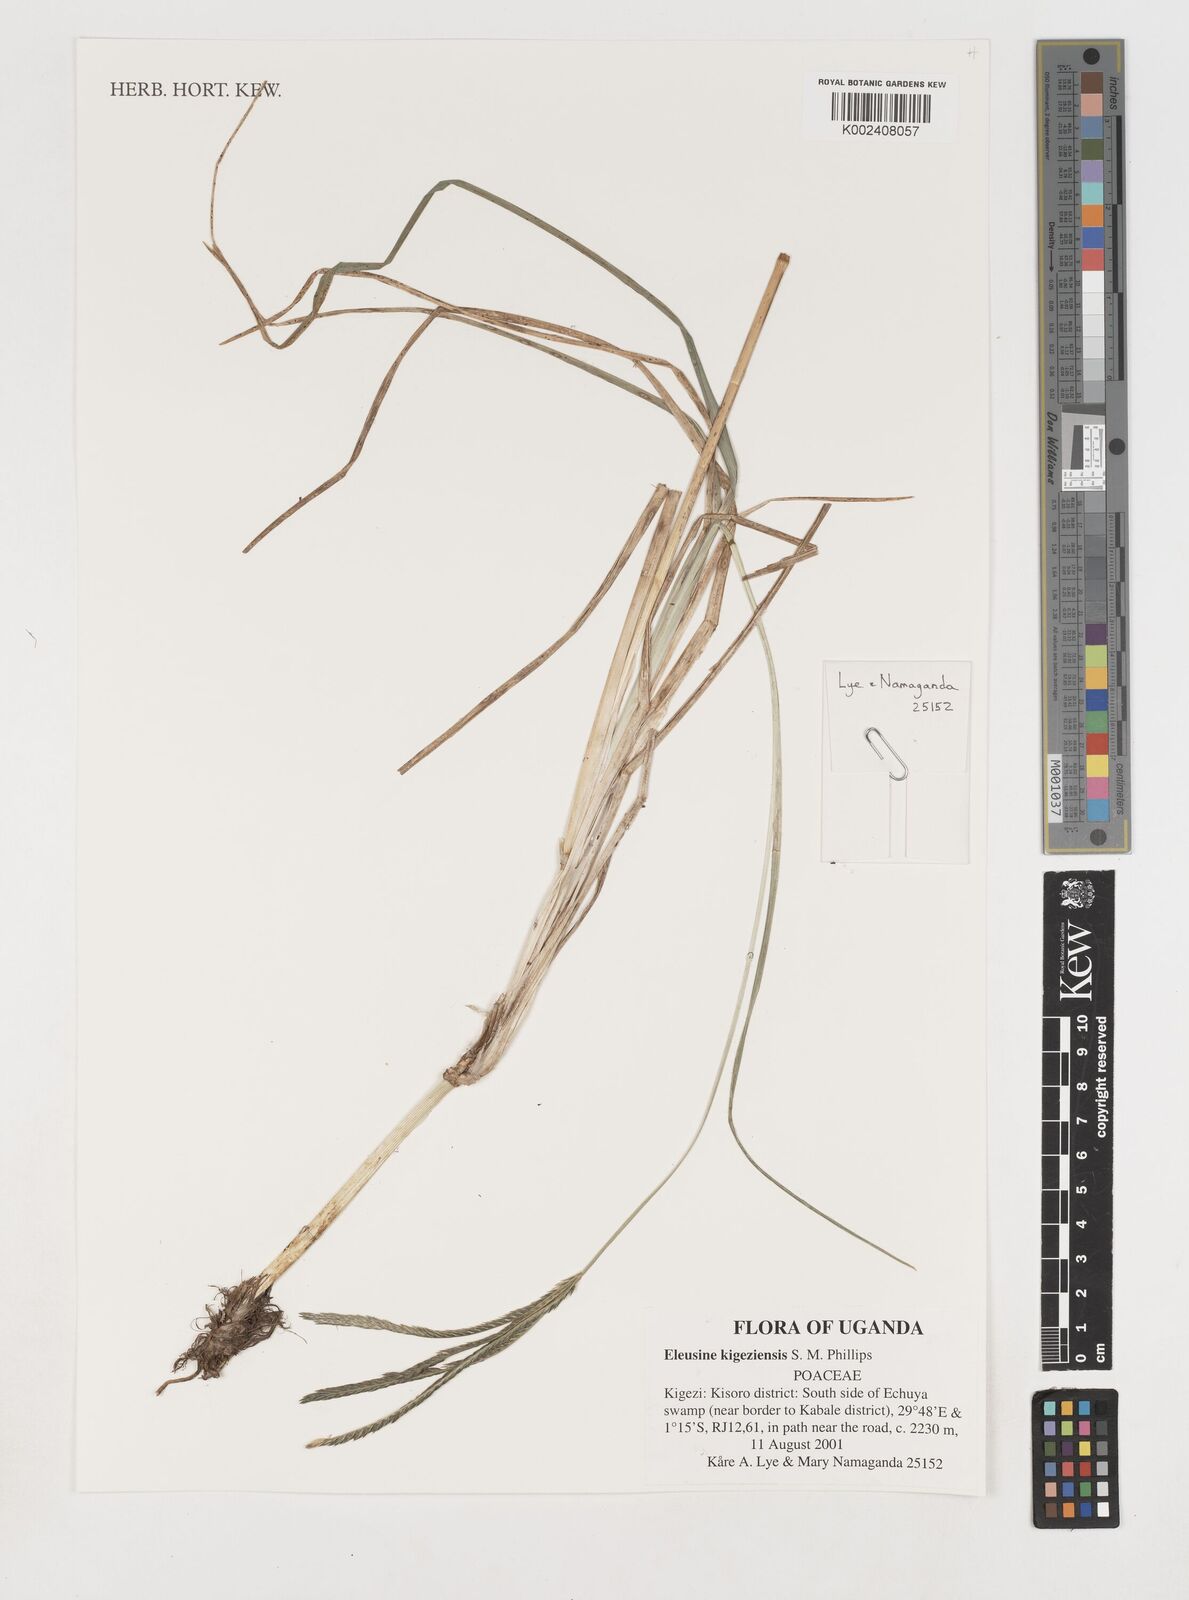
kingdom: Plantae
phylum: Tracheophyta
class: Liliopsida
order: Poales
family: Poaceae
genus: Eleusine
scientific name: Eleusine kigeziensis
